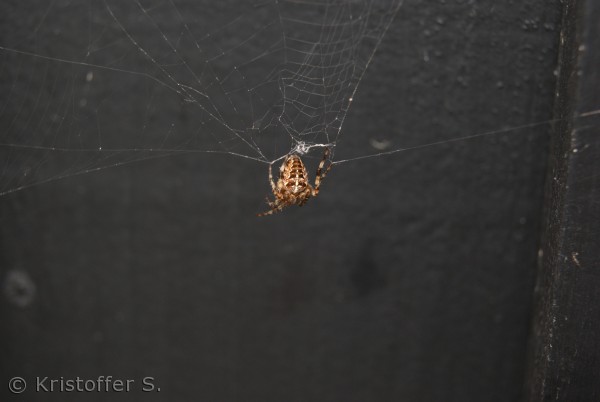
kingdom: Animalia
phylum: Arthropoda
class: Arachnida
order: Araneae
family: Araneidae
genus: Araneus
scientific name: Araneus diadematus
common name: Korsedderkop
